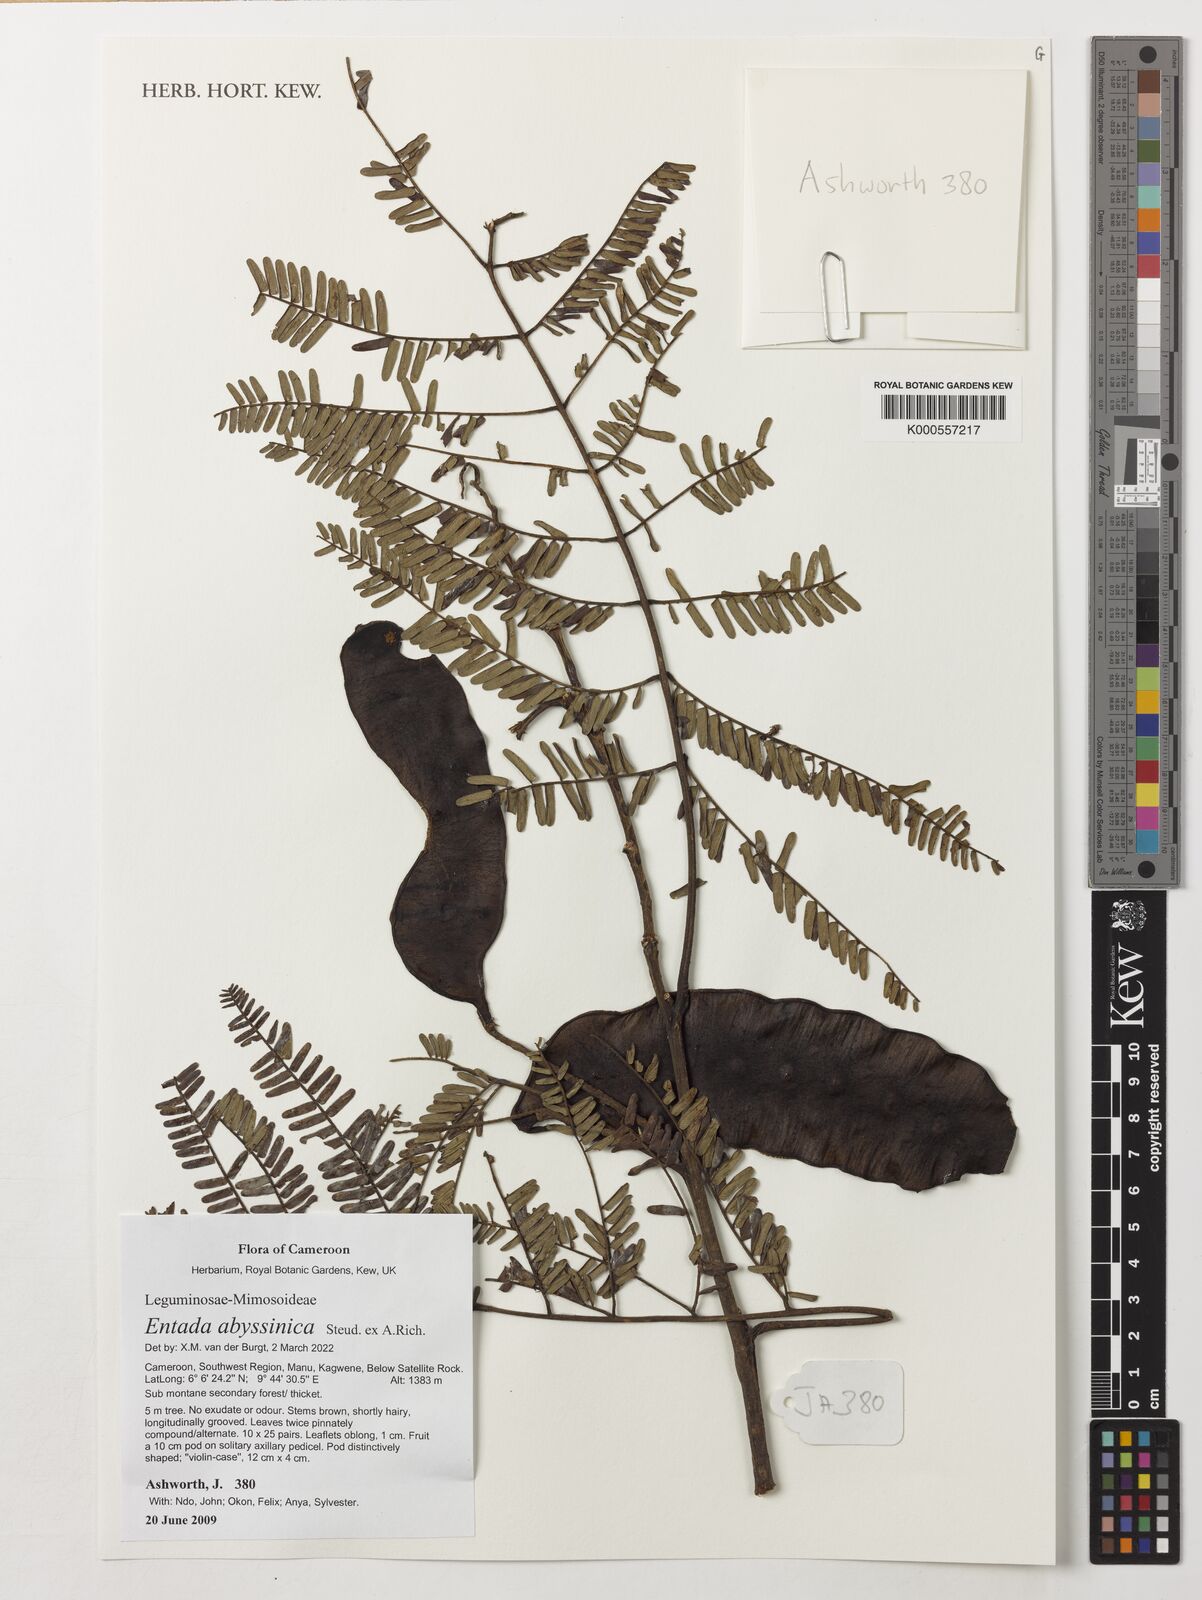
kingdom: Plantae
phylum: Tracheophyta
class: Magnoliopsida
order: Fabales
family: Fabaceae
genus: Entada
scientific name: Entada abyssinica
